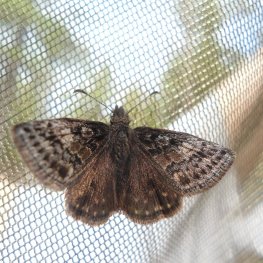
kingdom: Animalia
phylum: Arthropoda
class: Insecta
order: Lepidoptera
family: Hesperiidae
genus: Erynnis
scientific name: Erynnis icelus
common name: Dreamy Duskywing
